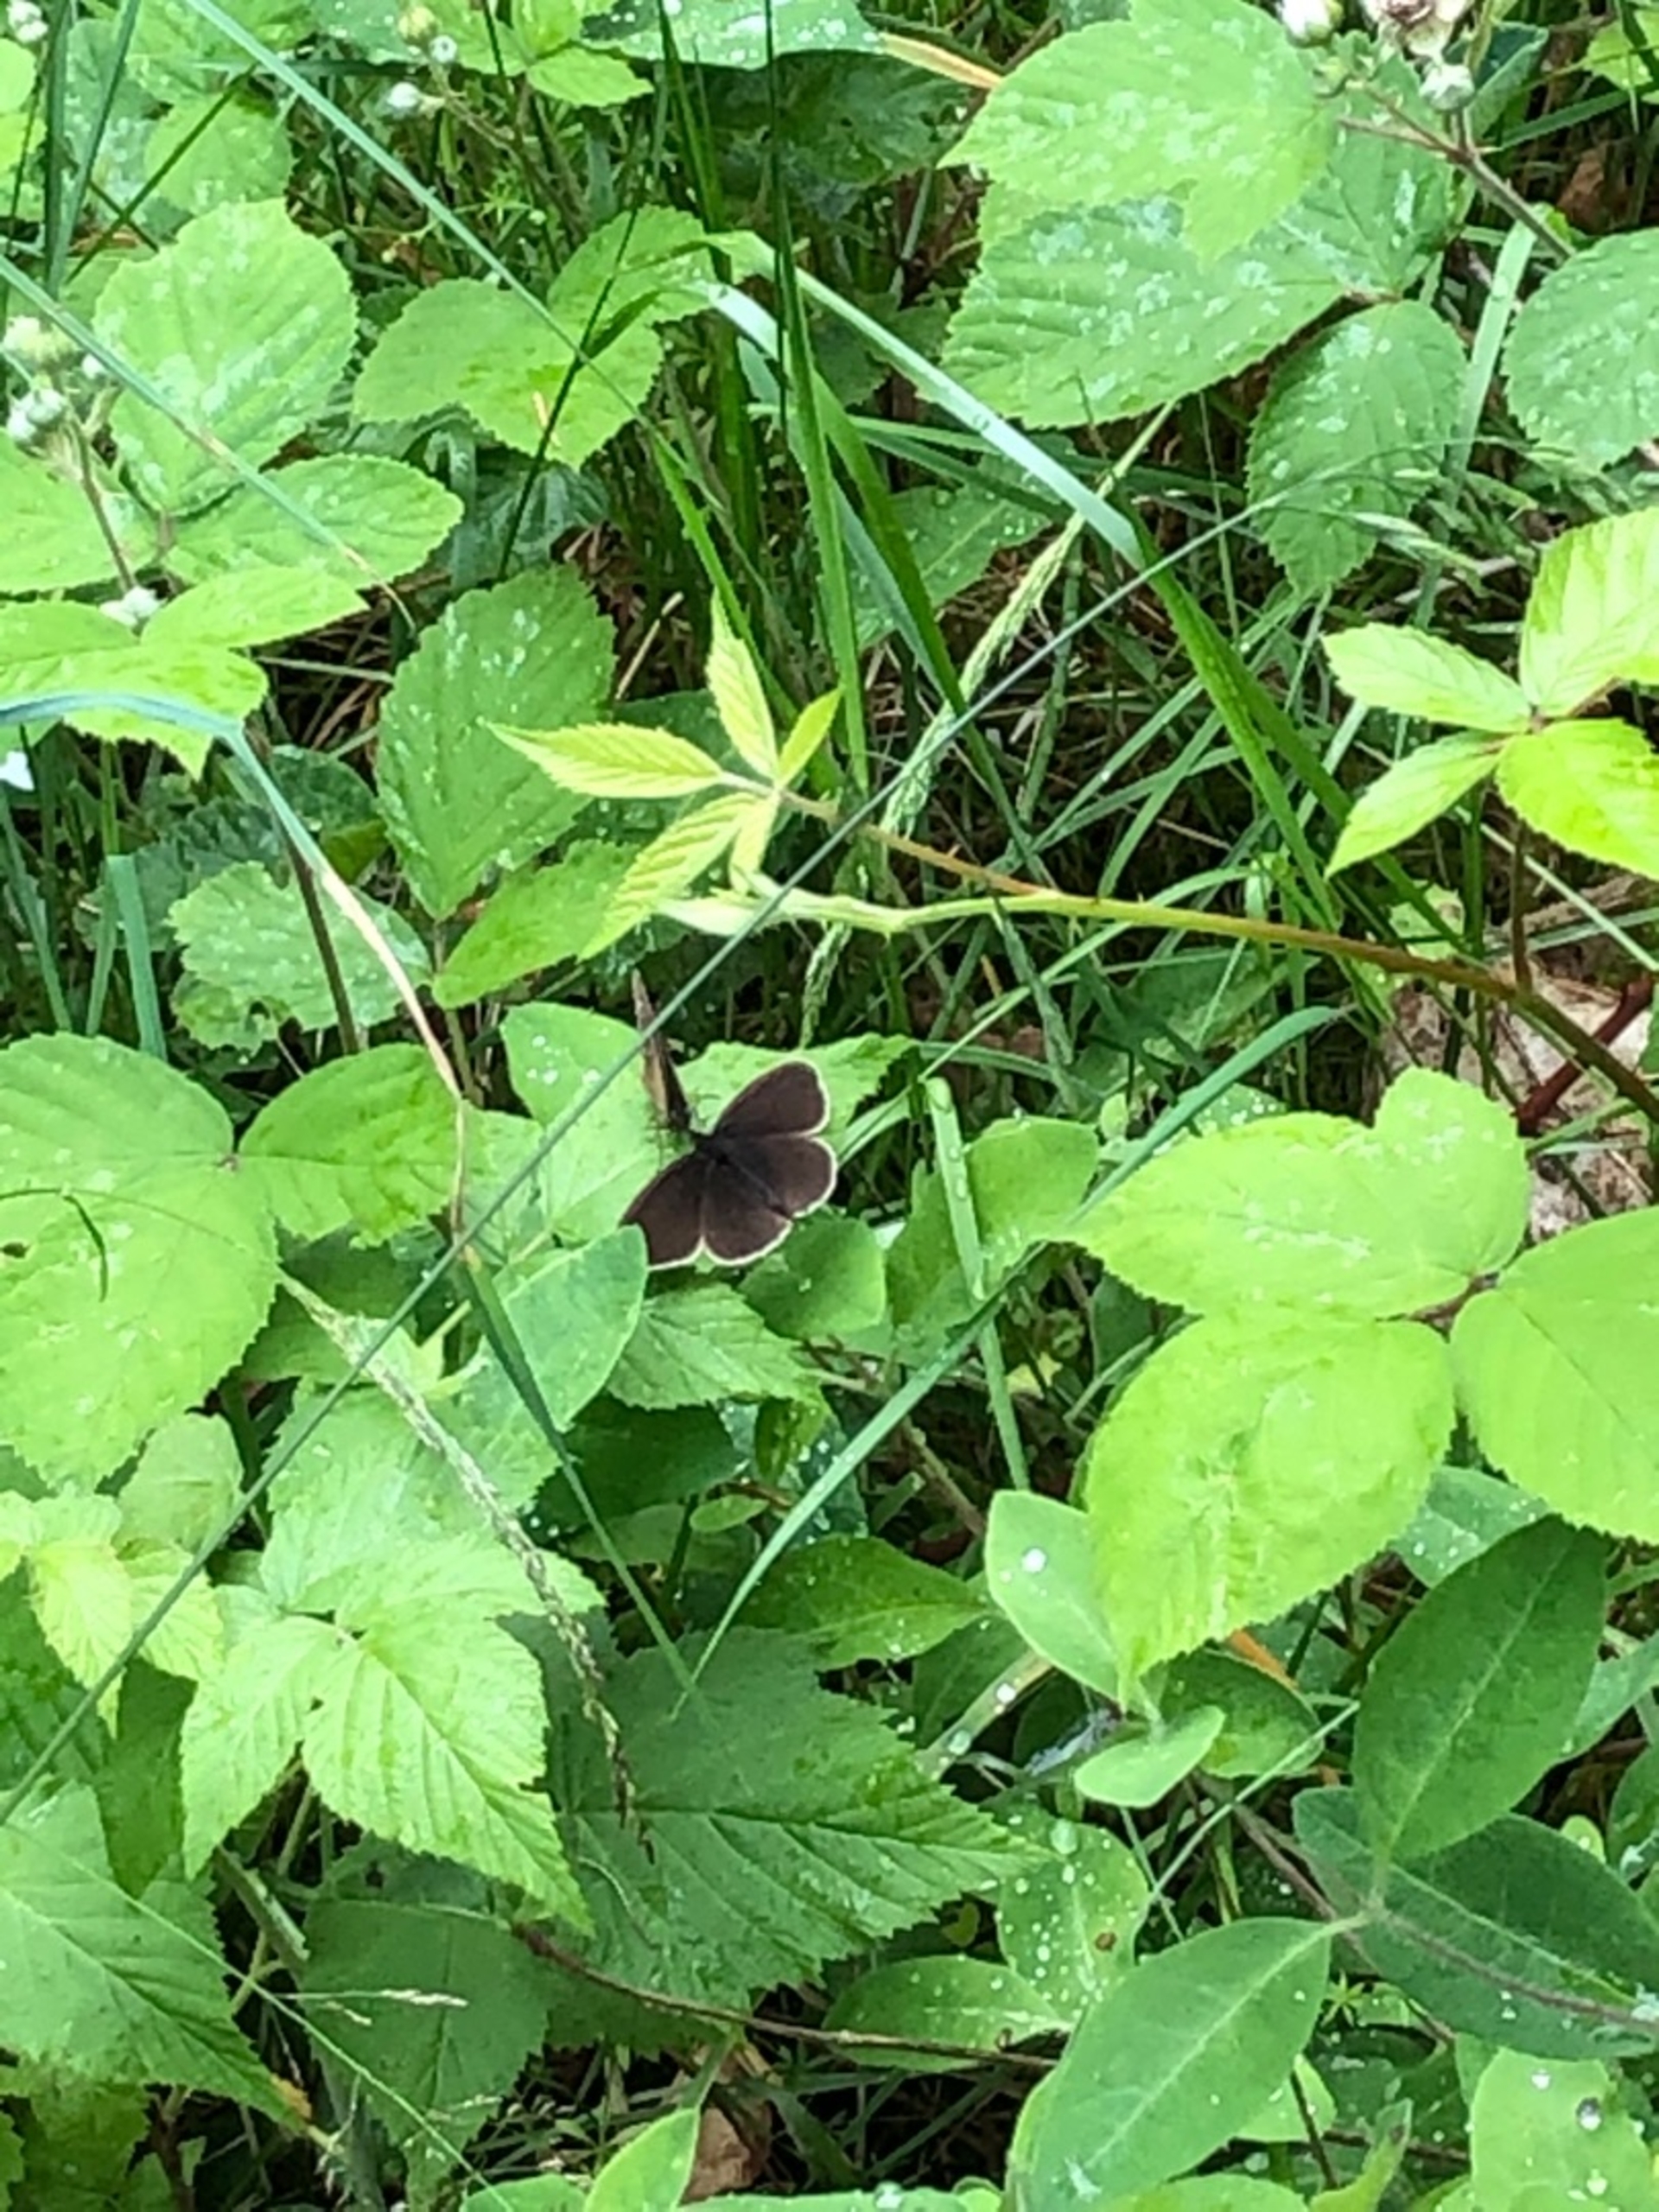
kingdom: Animalia
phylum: Arthropoda
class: Insecta
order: Lepidoptera
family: Nymphalidae
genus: Aphantopus
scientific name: Aphantopus hyperantus
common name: Engrandøje
